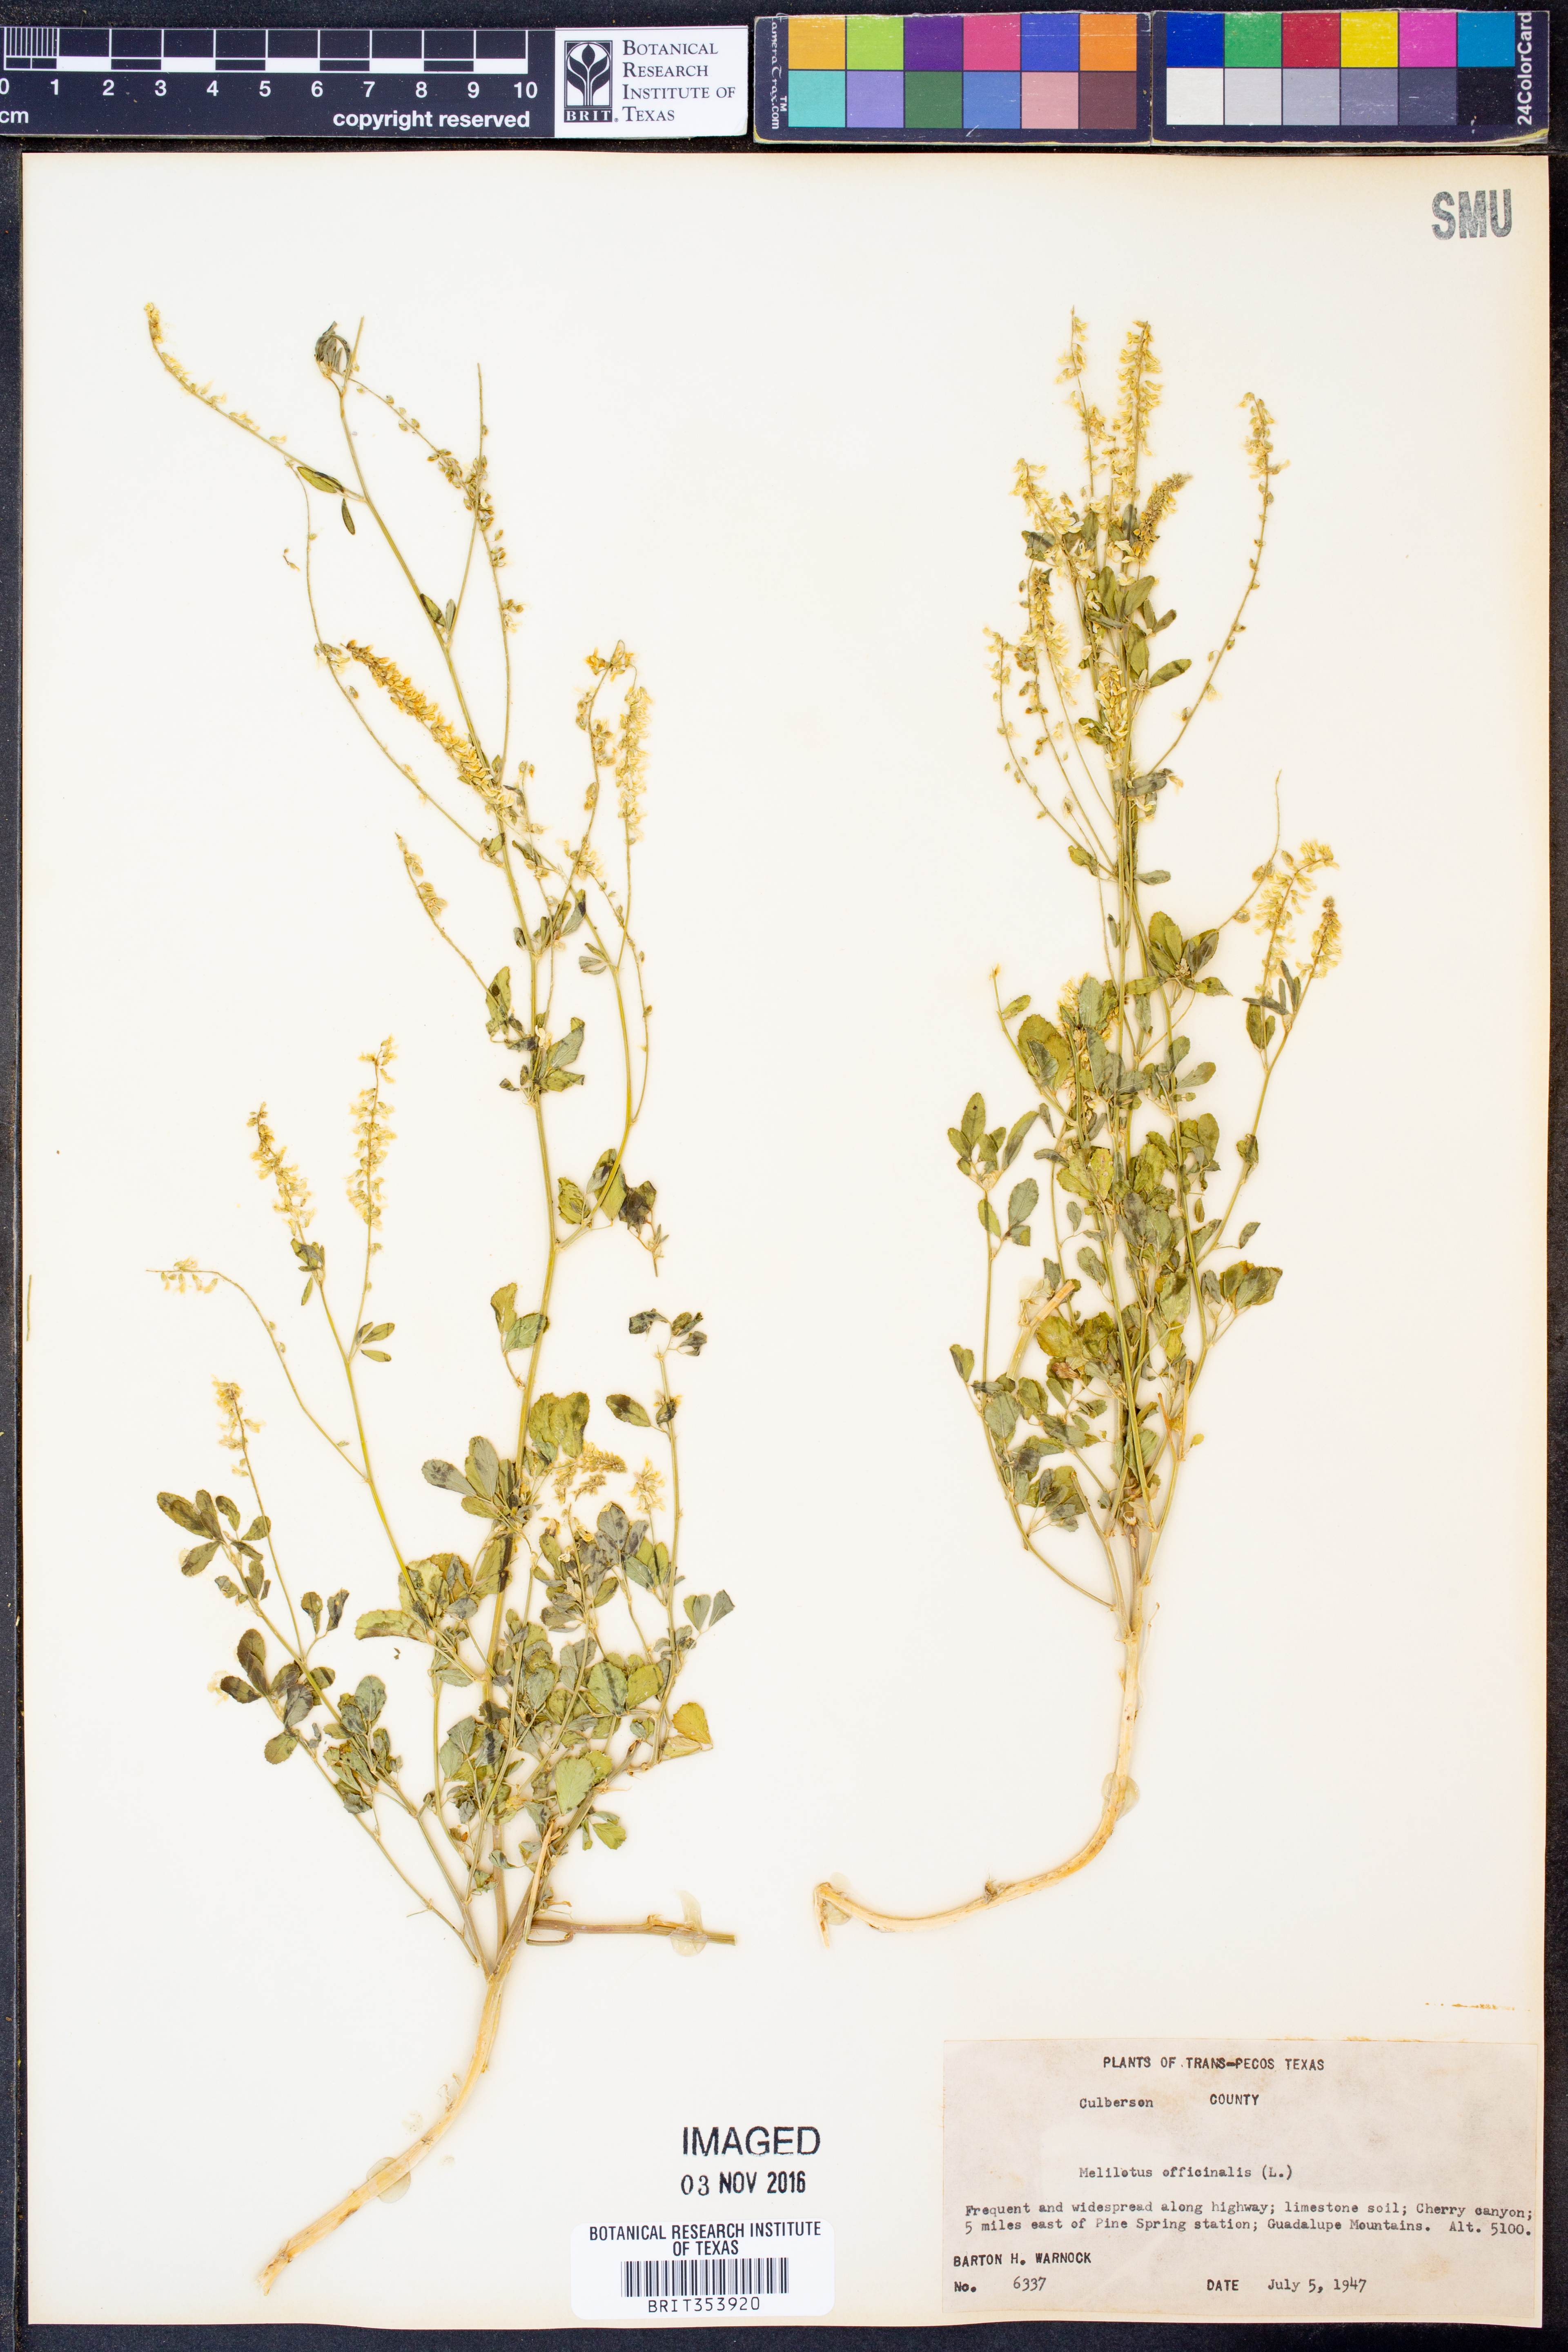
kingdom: Plantae
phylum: Tracheophyta
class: Magnoliopsida
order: Fabales
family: Fabaceae
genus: Melilotus
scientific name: Melilotus officinalis
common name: Sweetclover
